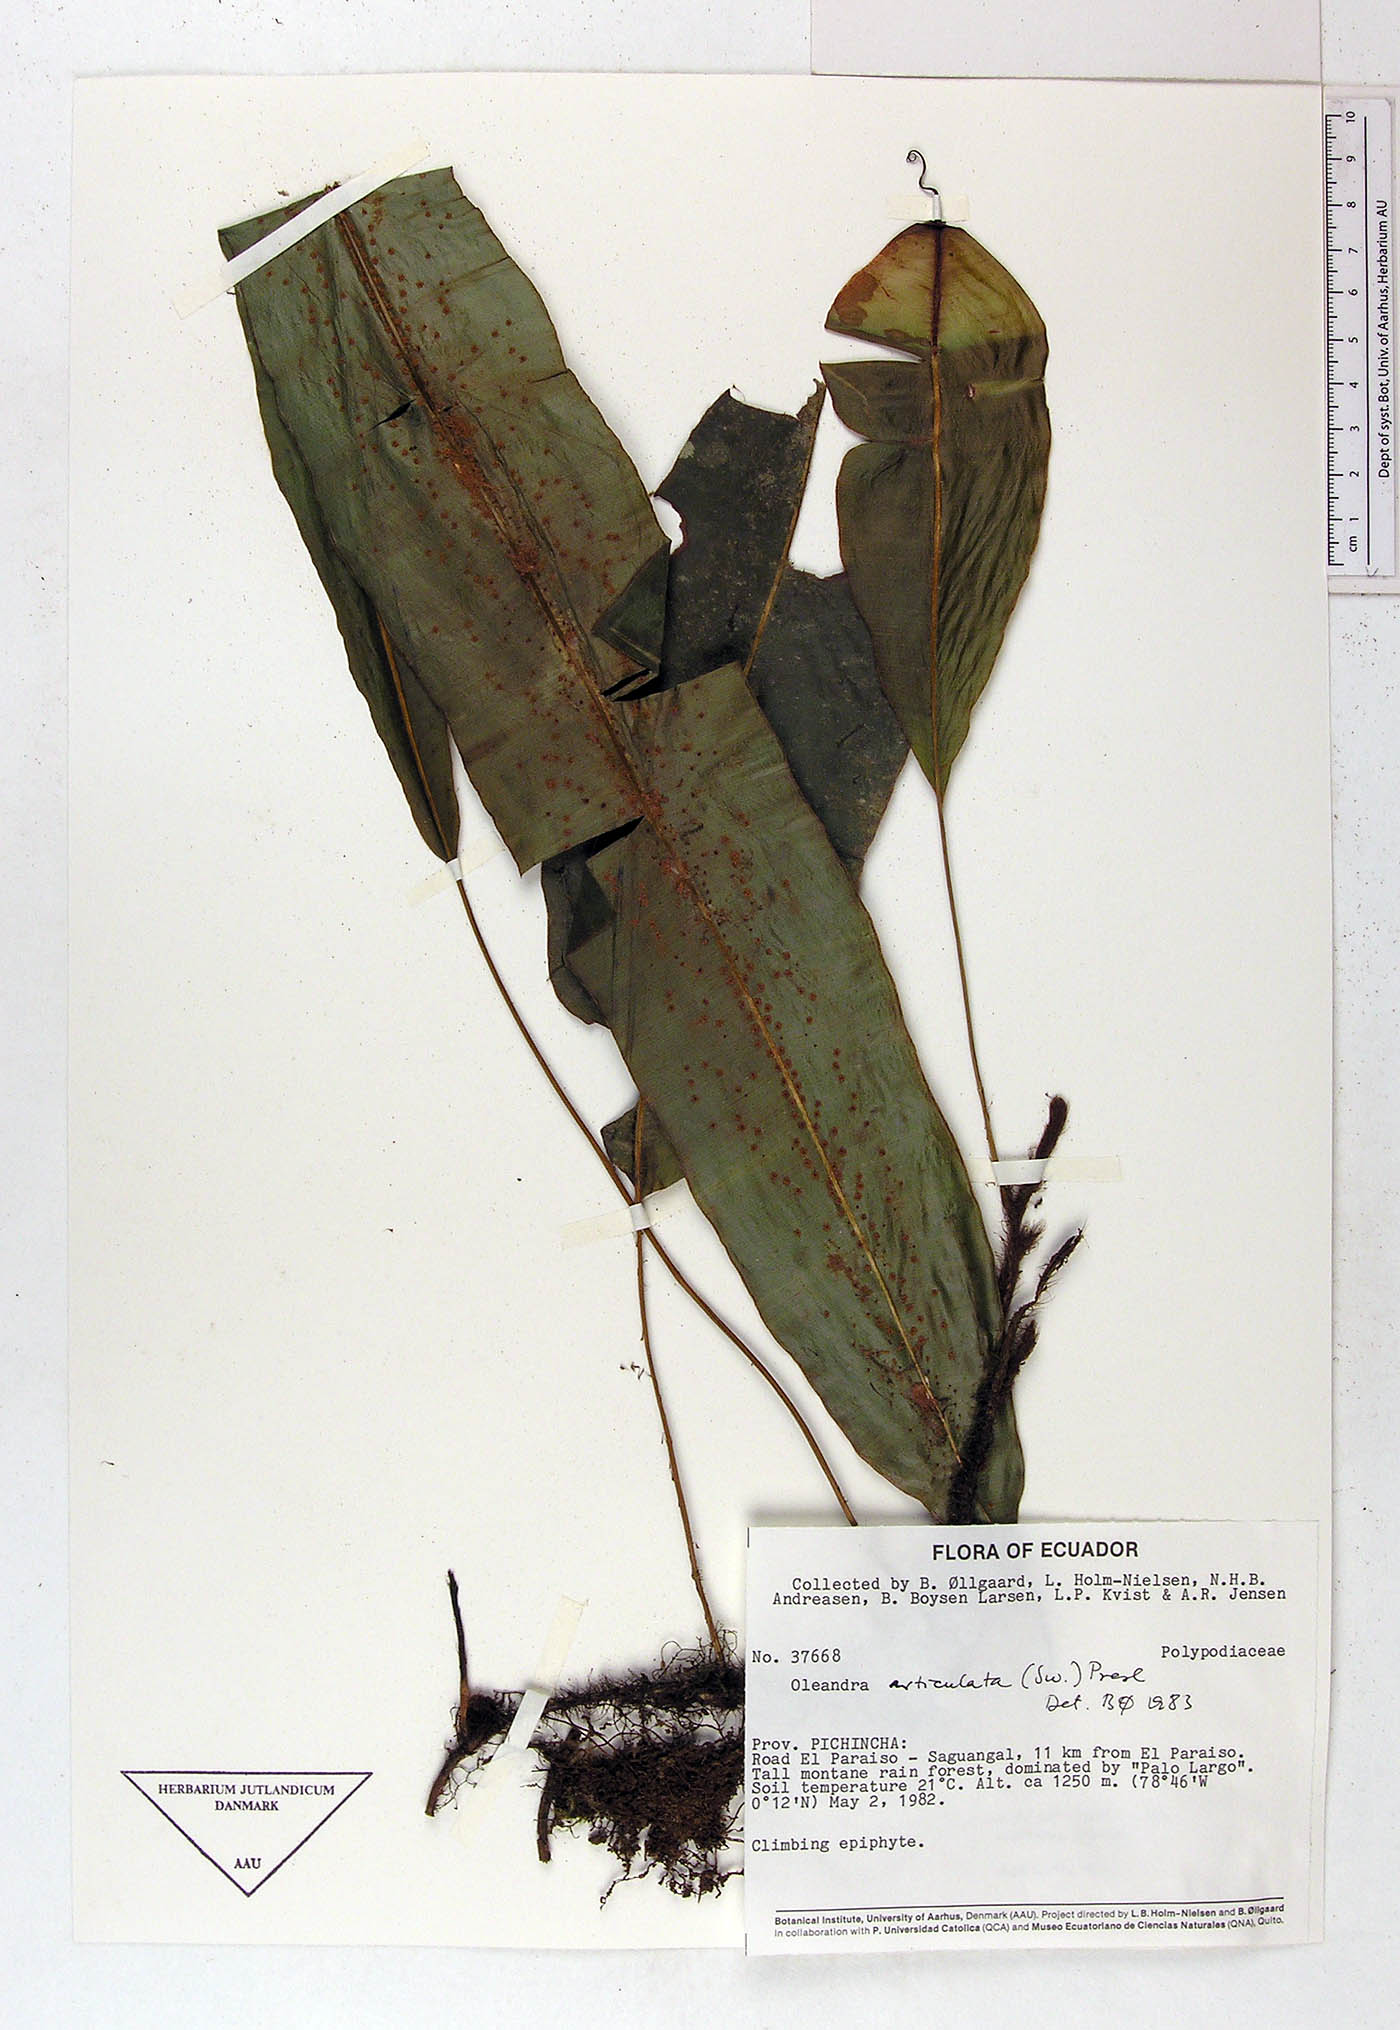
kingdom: Plantae
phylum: Tracheophyta
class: Polypodiopsida
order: Polypodiales
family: Oleandraceae
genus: Oleandra
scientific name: Oleandra articulata
